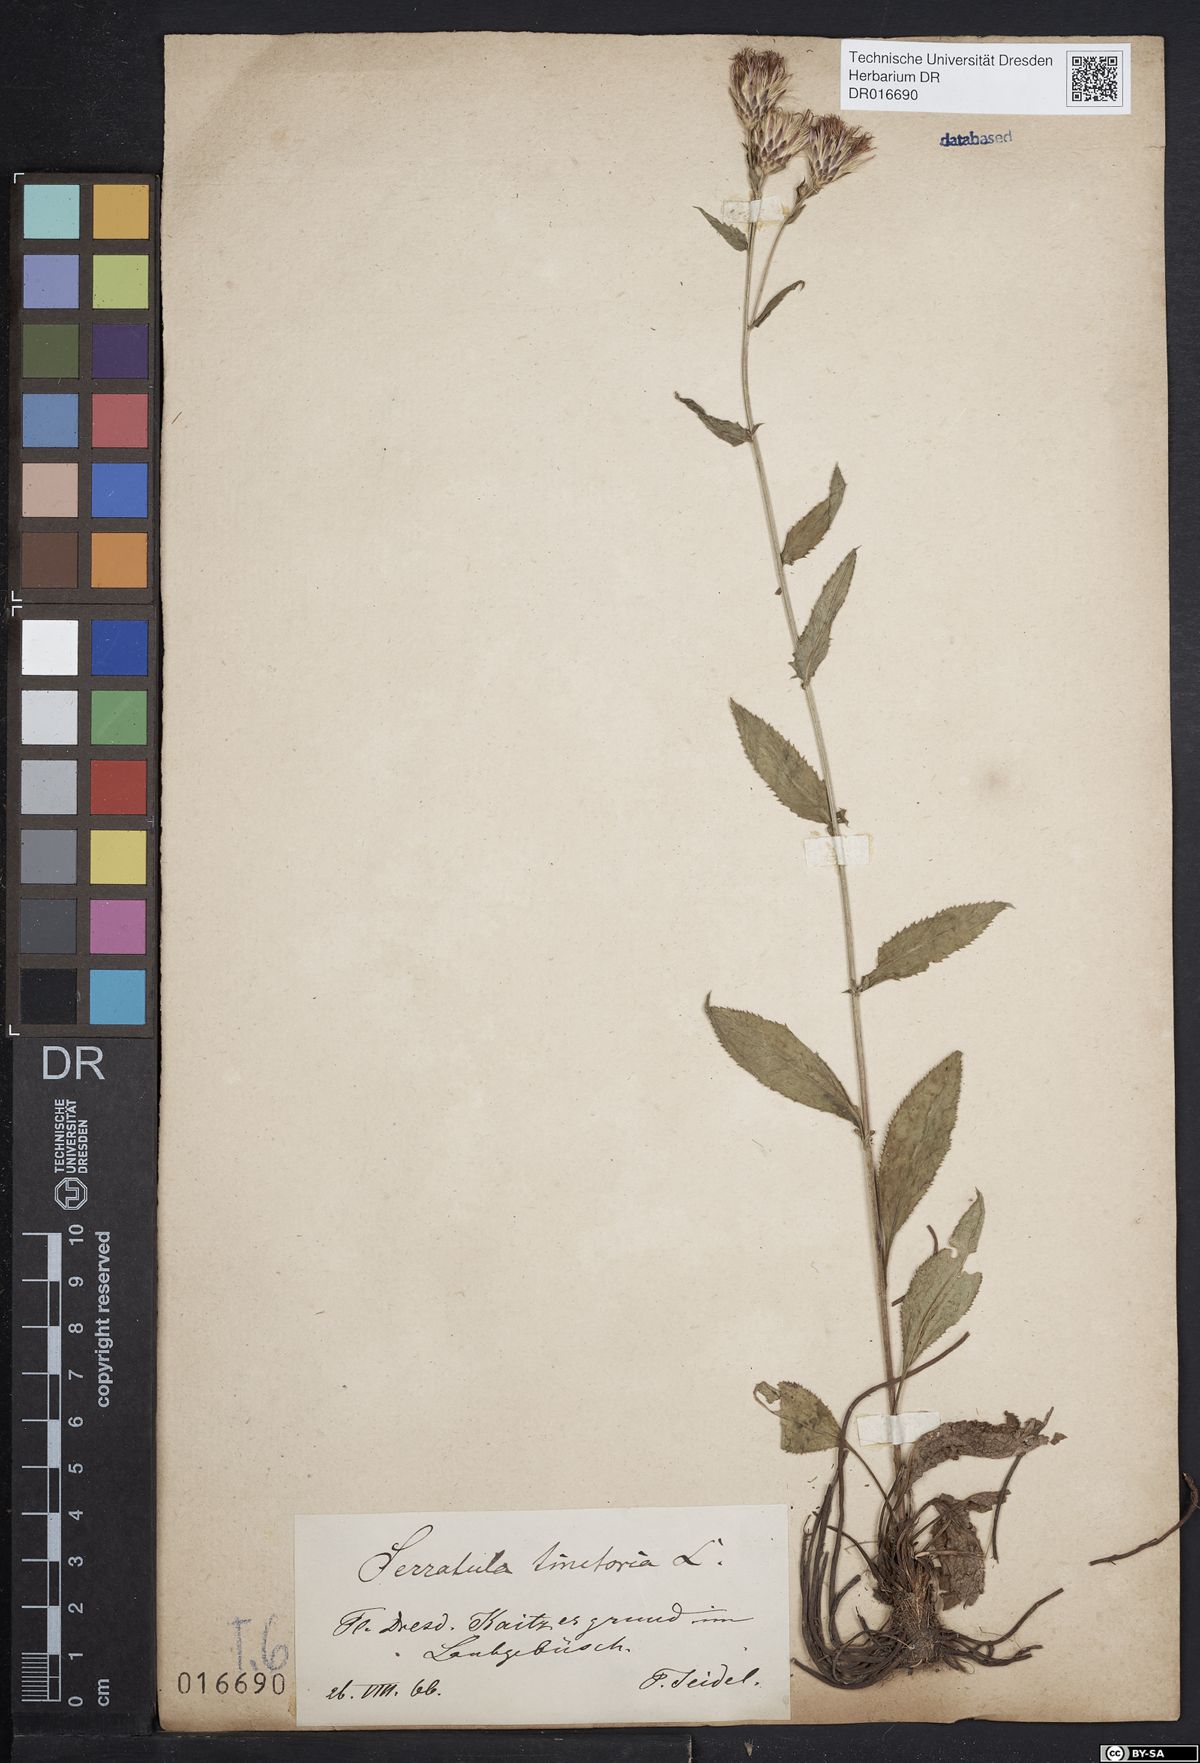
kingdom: Plantae
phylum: Tracheophyta
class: Magnoliopsida
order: Asterales
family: Asteraceae
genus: Serratula
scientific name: Serratula tinctoria
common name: Saw-wort
